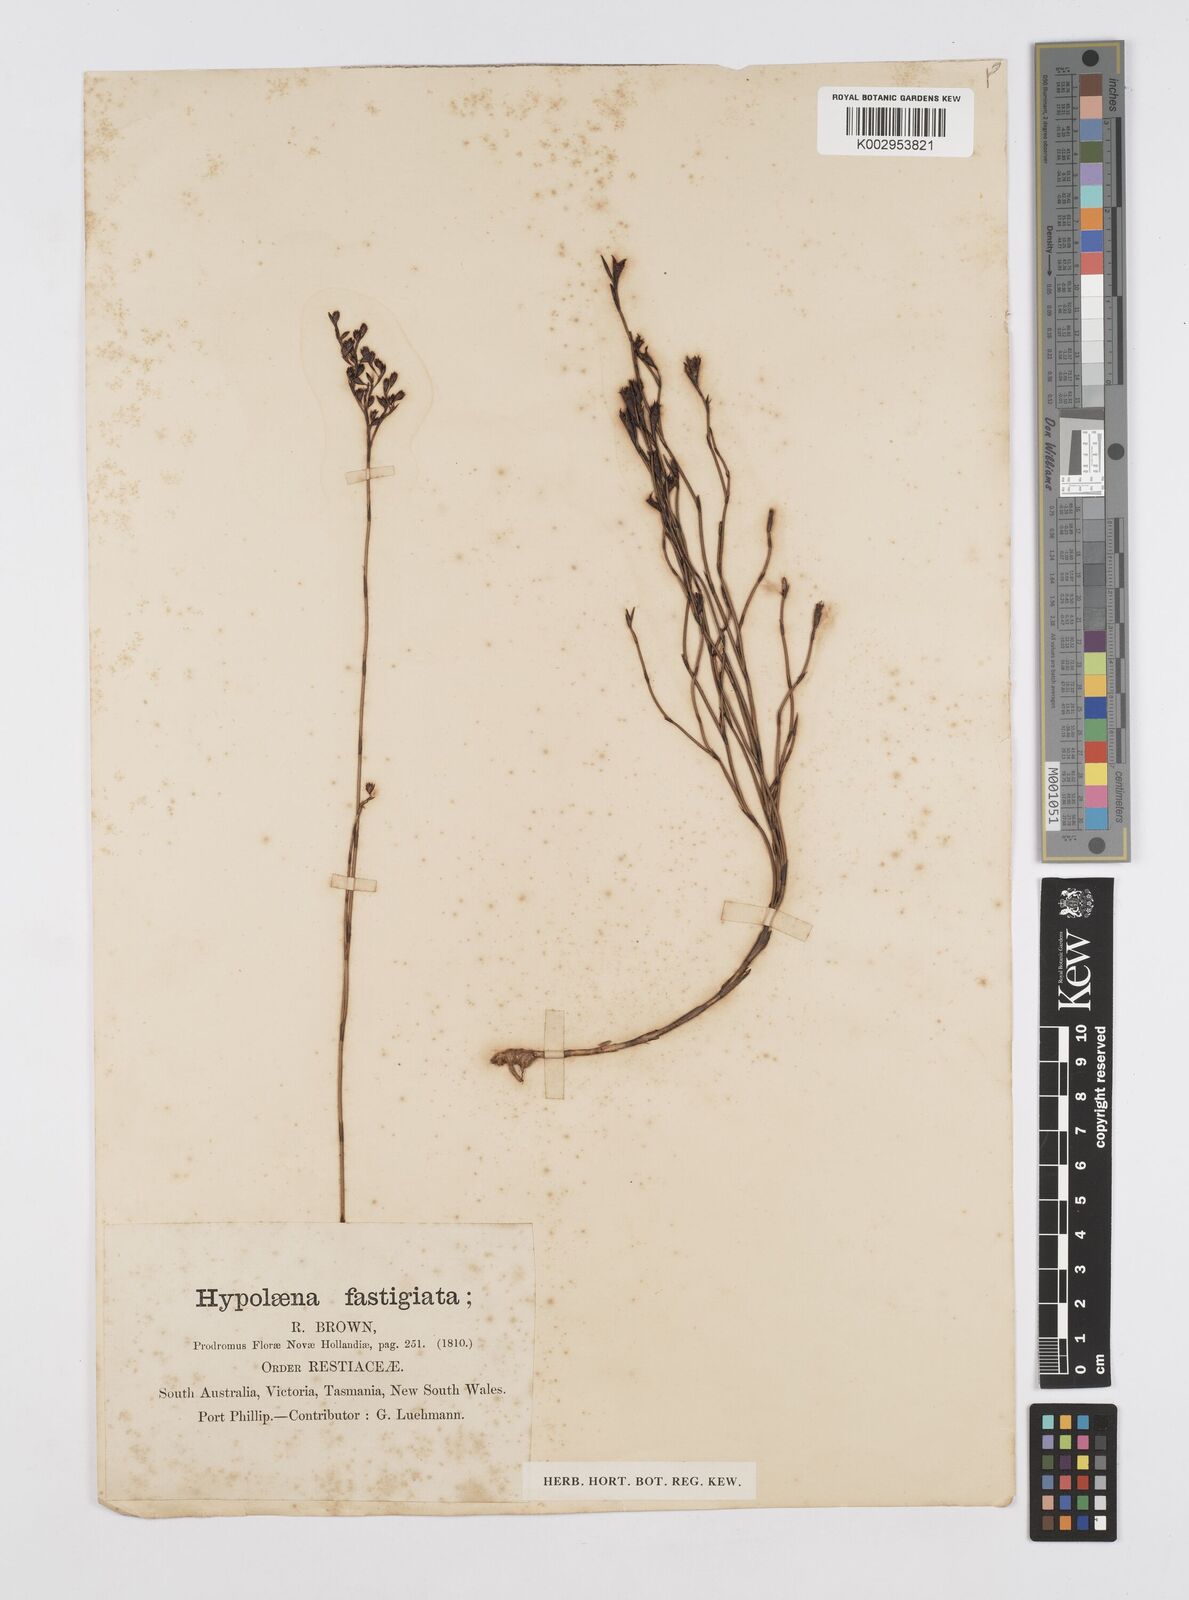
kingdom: Plantae
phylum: Tracheophyta
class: Liliopsida
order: Poales
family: Restionaceae
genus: Hypolaena
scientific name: Hypolaena fastigiata
